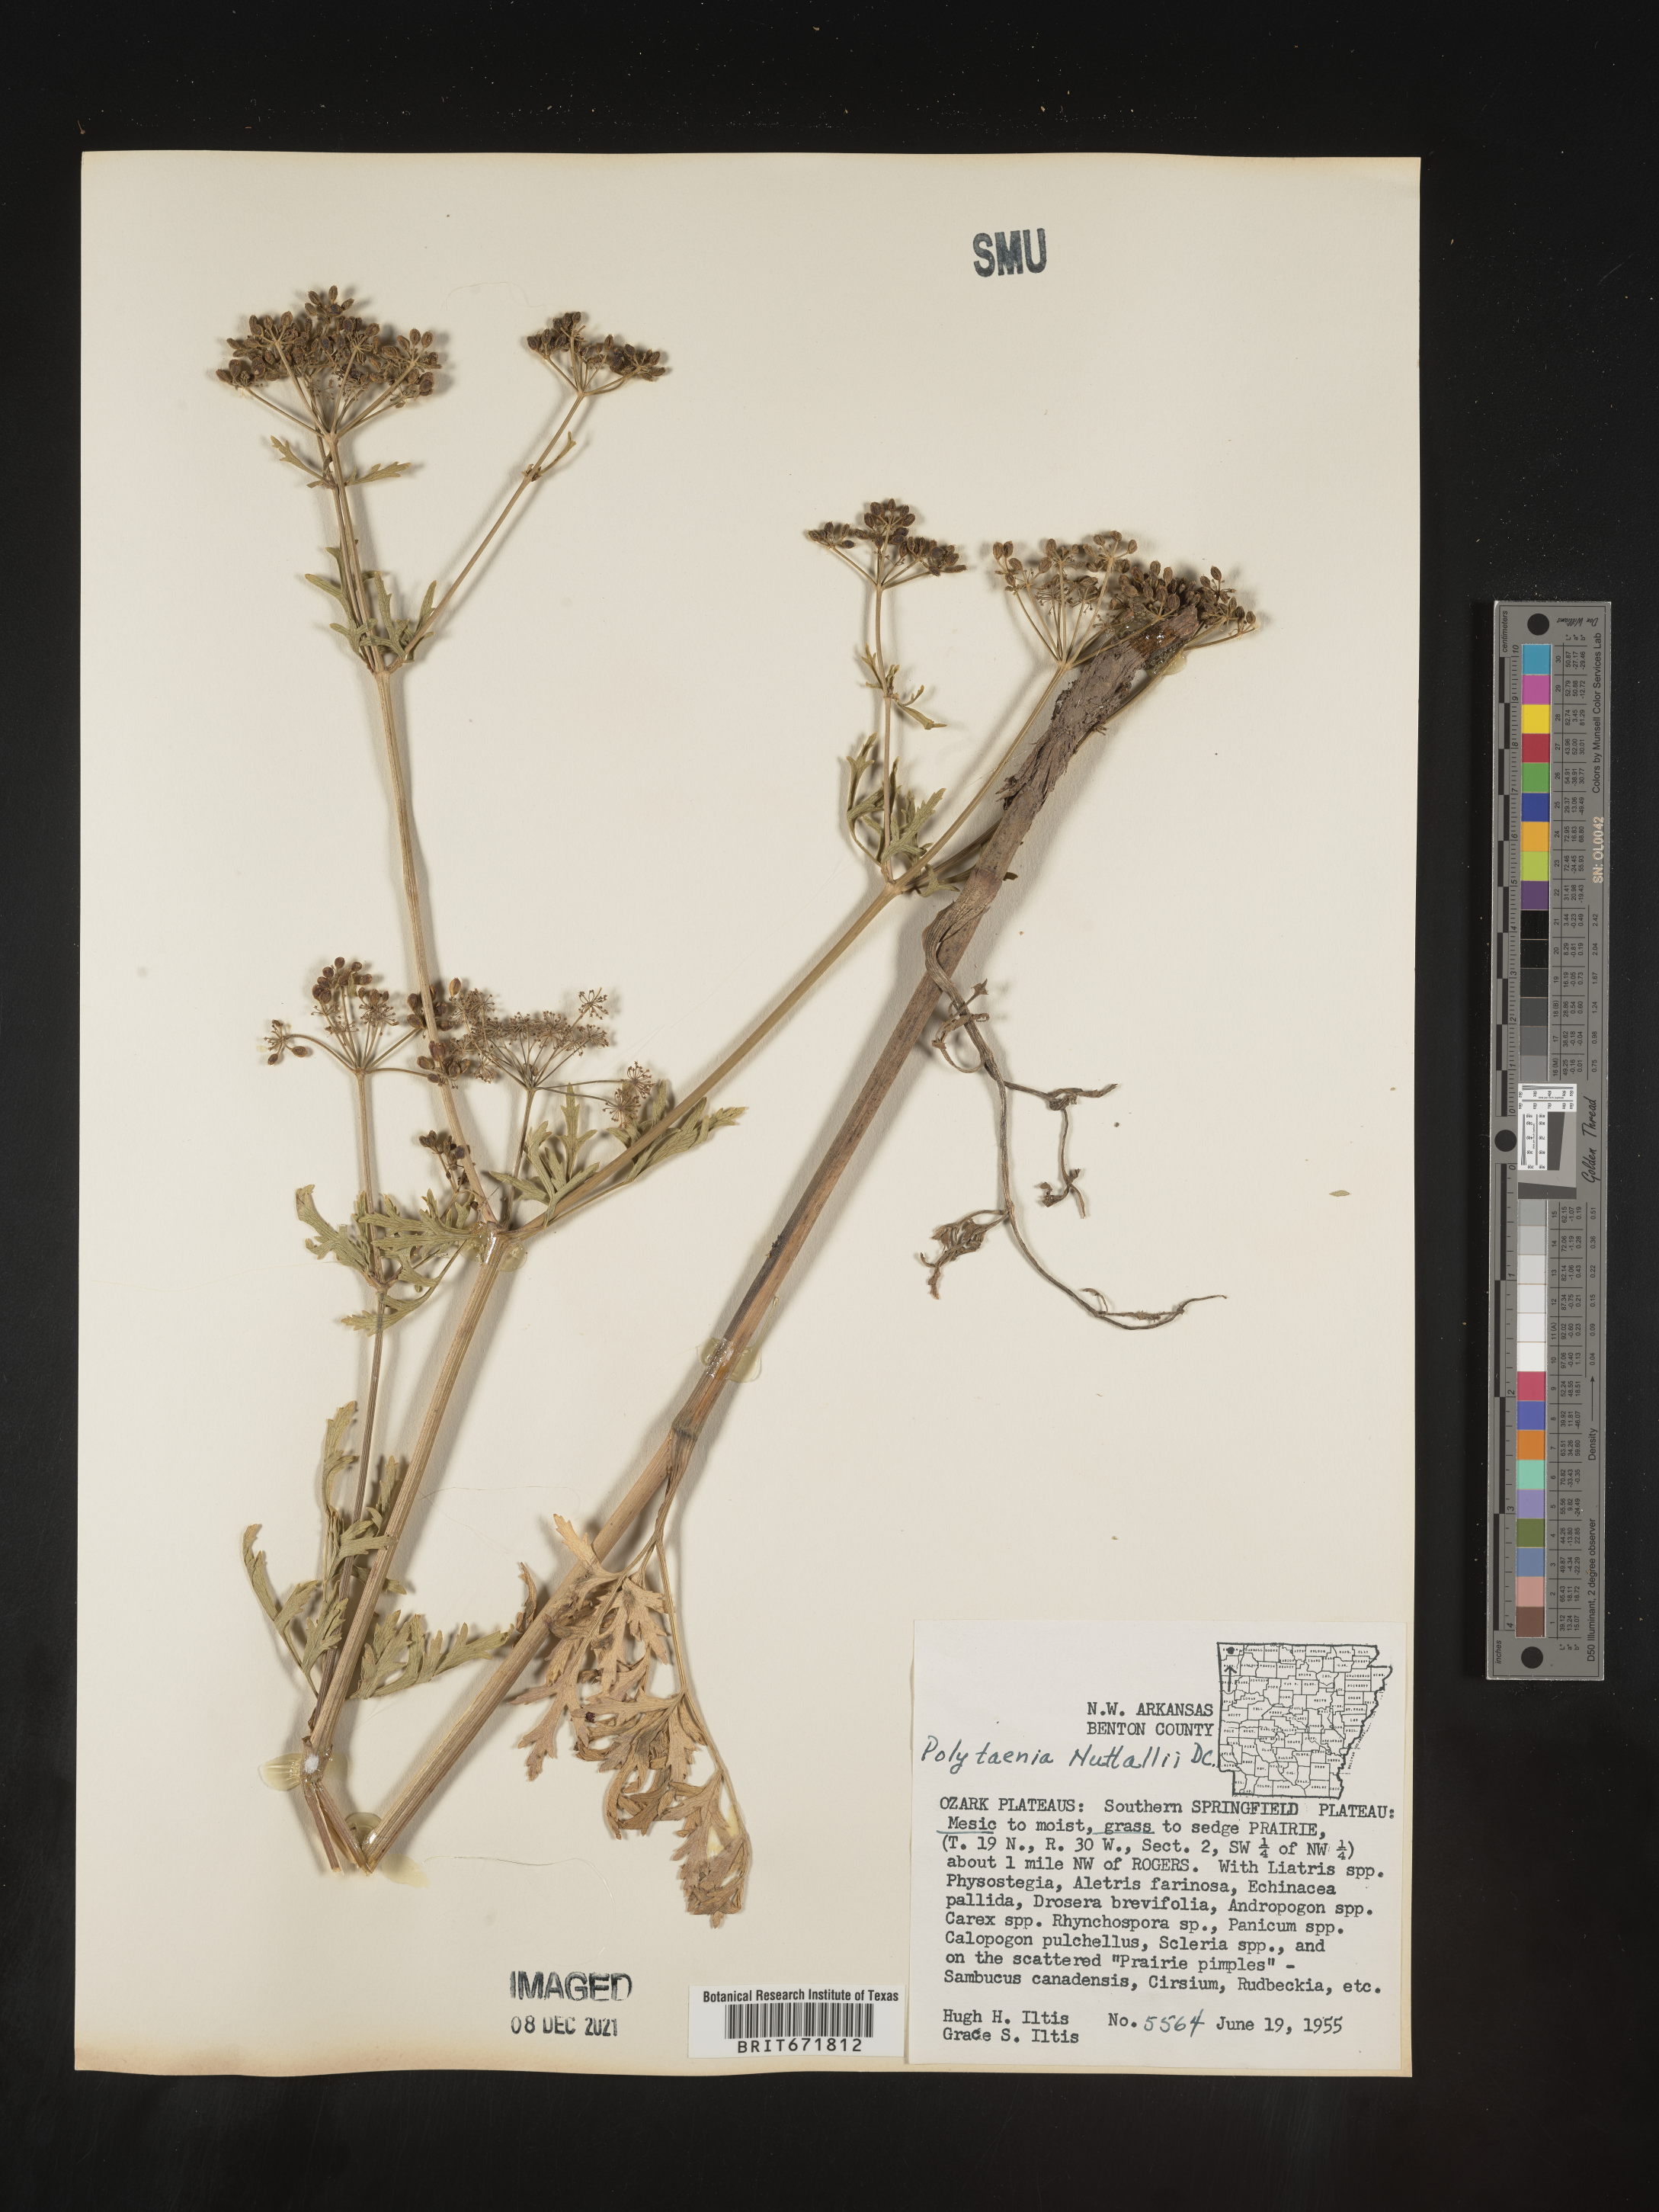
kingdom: Plantae
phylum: Tracheophyta
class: Magnoliopsida
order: Apiales
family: Apiaceae
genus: Polytaenia
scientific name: Polytaenia nuttallii
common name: Prairie-parsley
